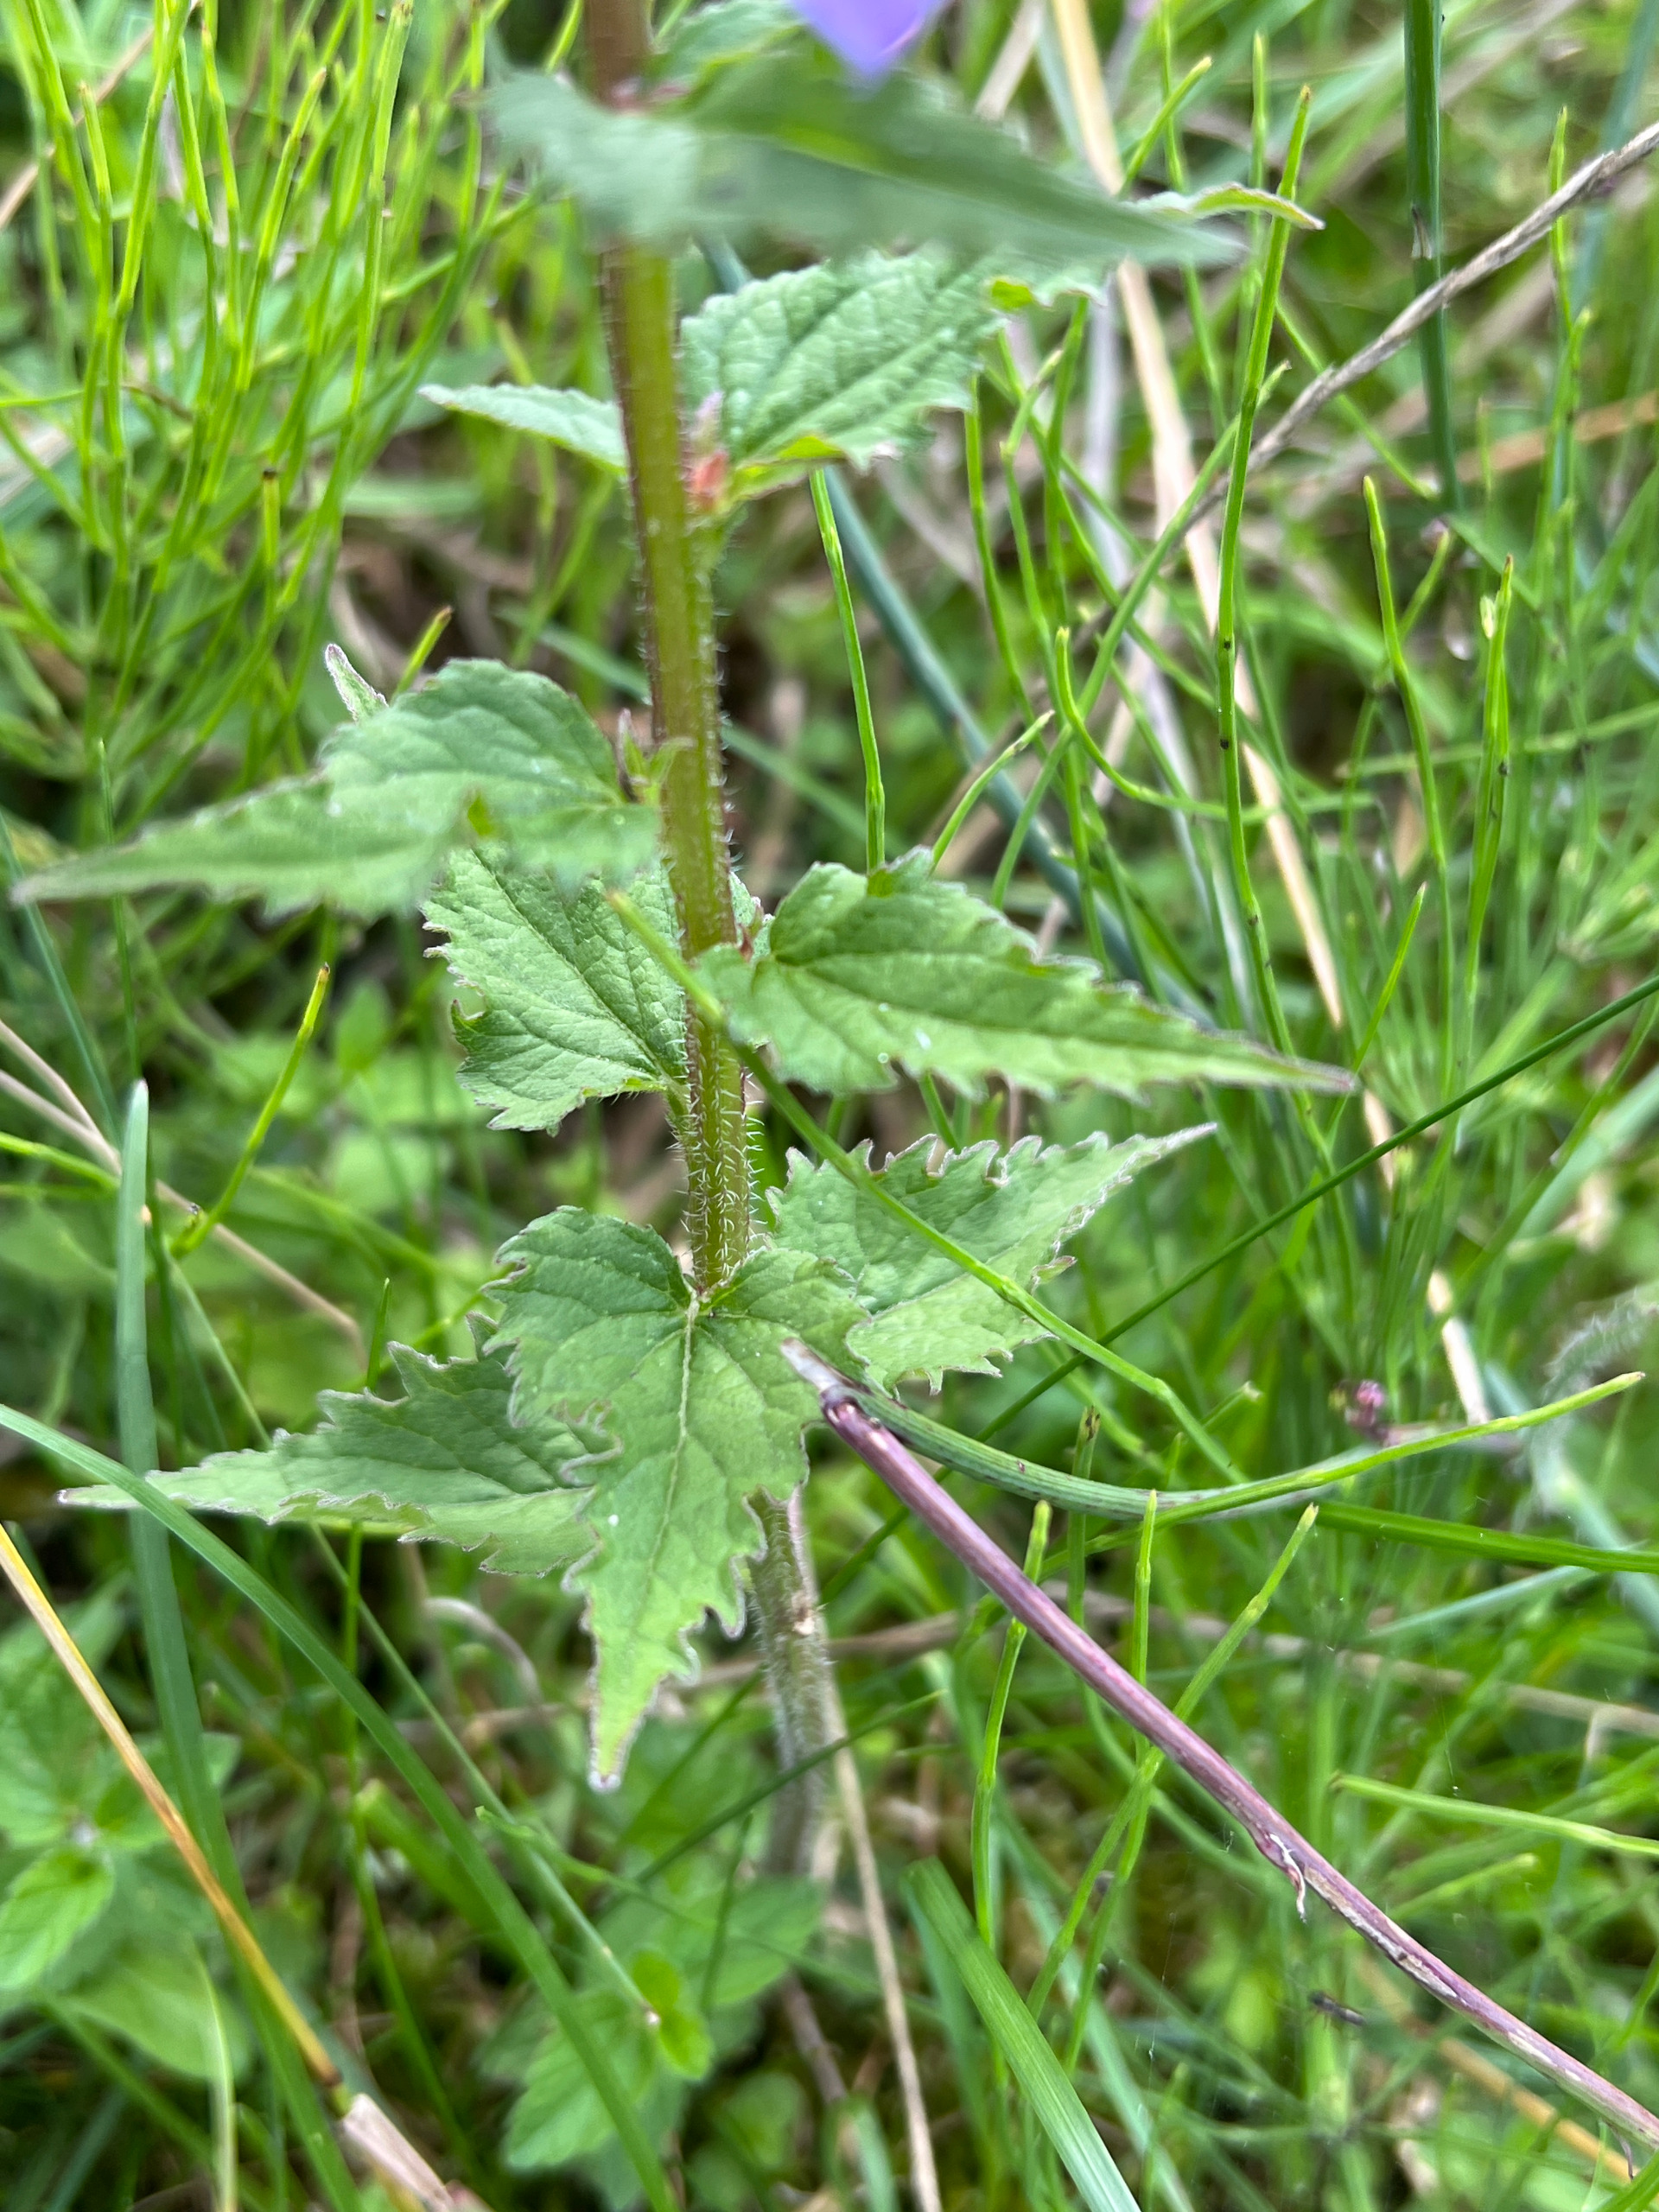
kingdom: Plantae
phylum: Tracheophyta
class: Magnoliopsida
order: Asterales
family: Campanulaceae
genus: Campanula
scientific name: Campanula trachelium
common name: Nælde-klokke
